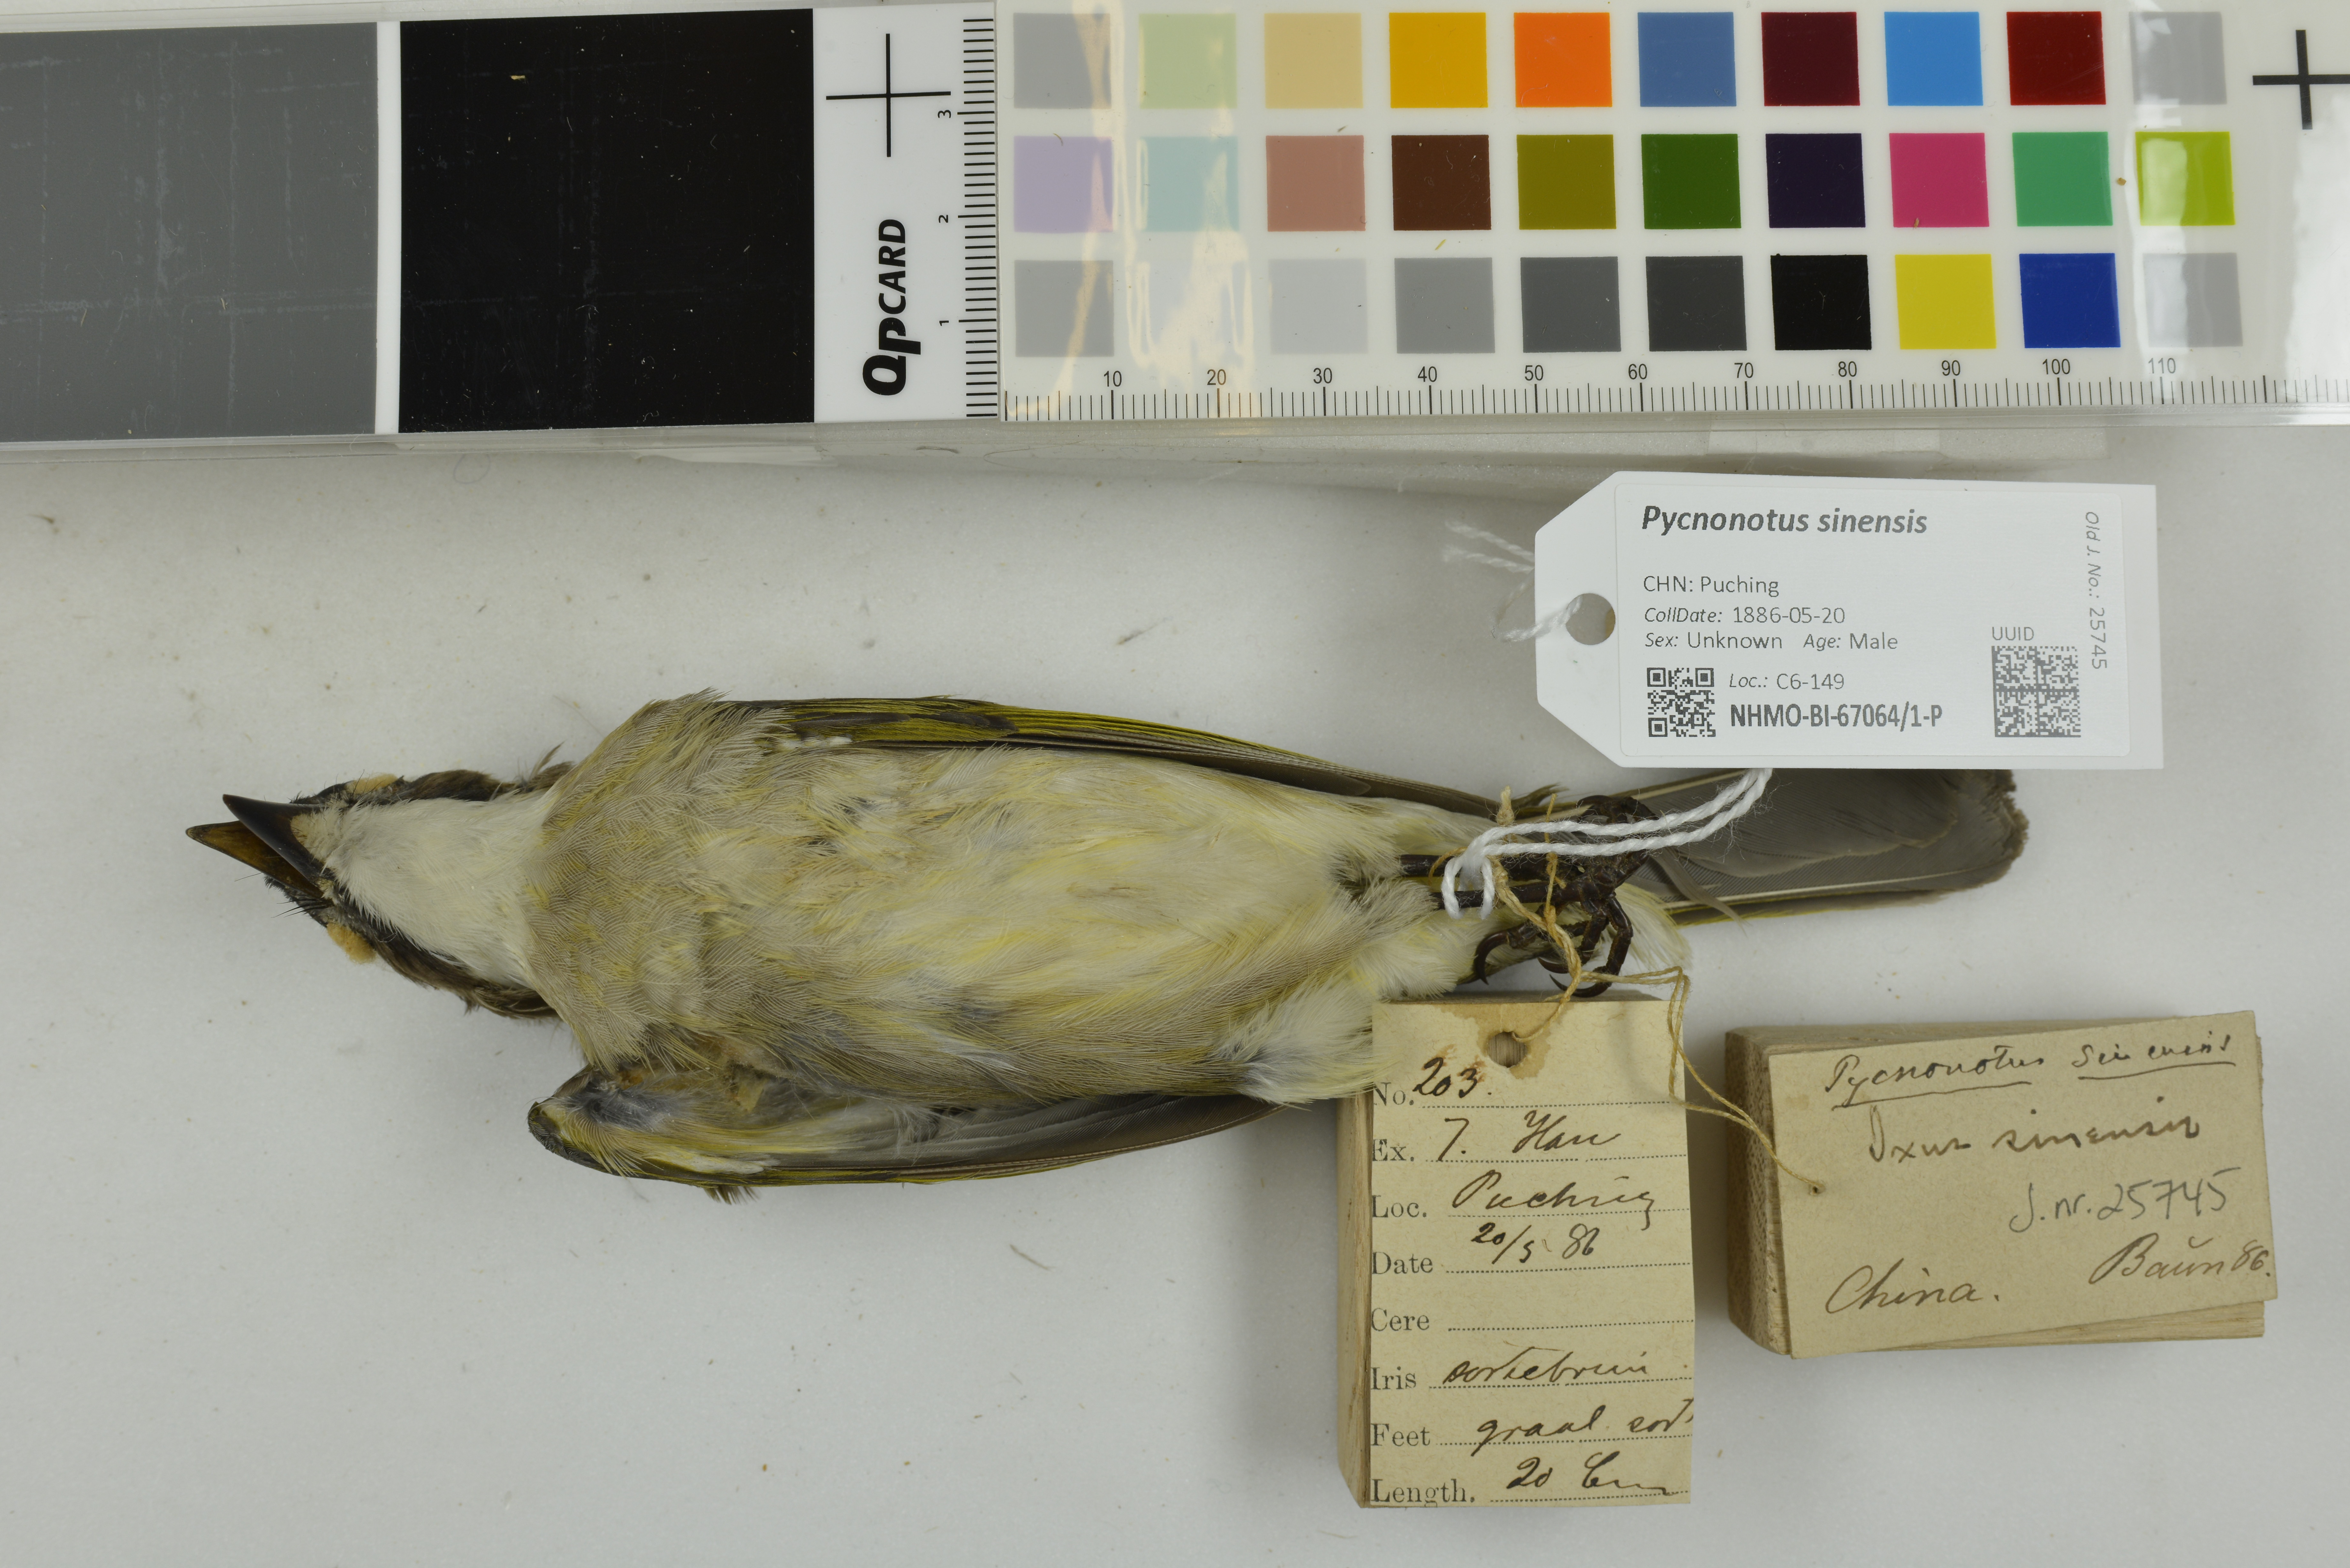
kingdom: Animalia
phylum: Chordata
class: Aves
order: Passeriformes
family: Pycnonotidae
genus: Pycnonotus
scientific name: Pycnonotus sinensis
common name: Light-vented bulbul
